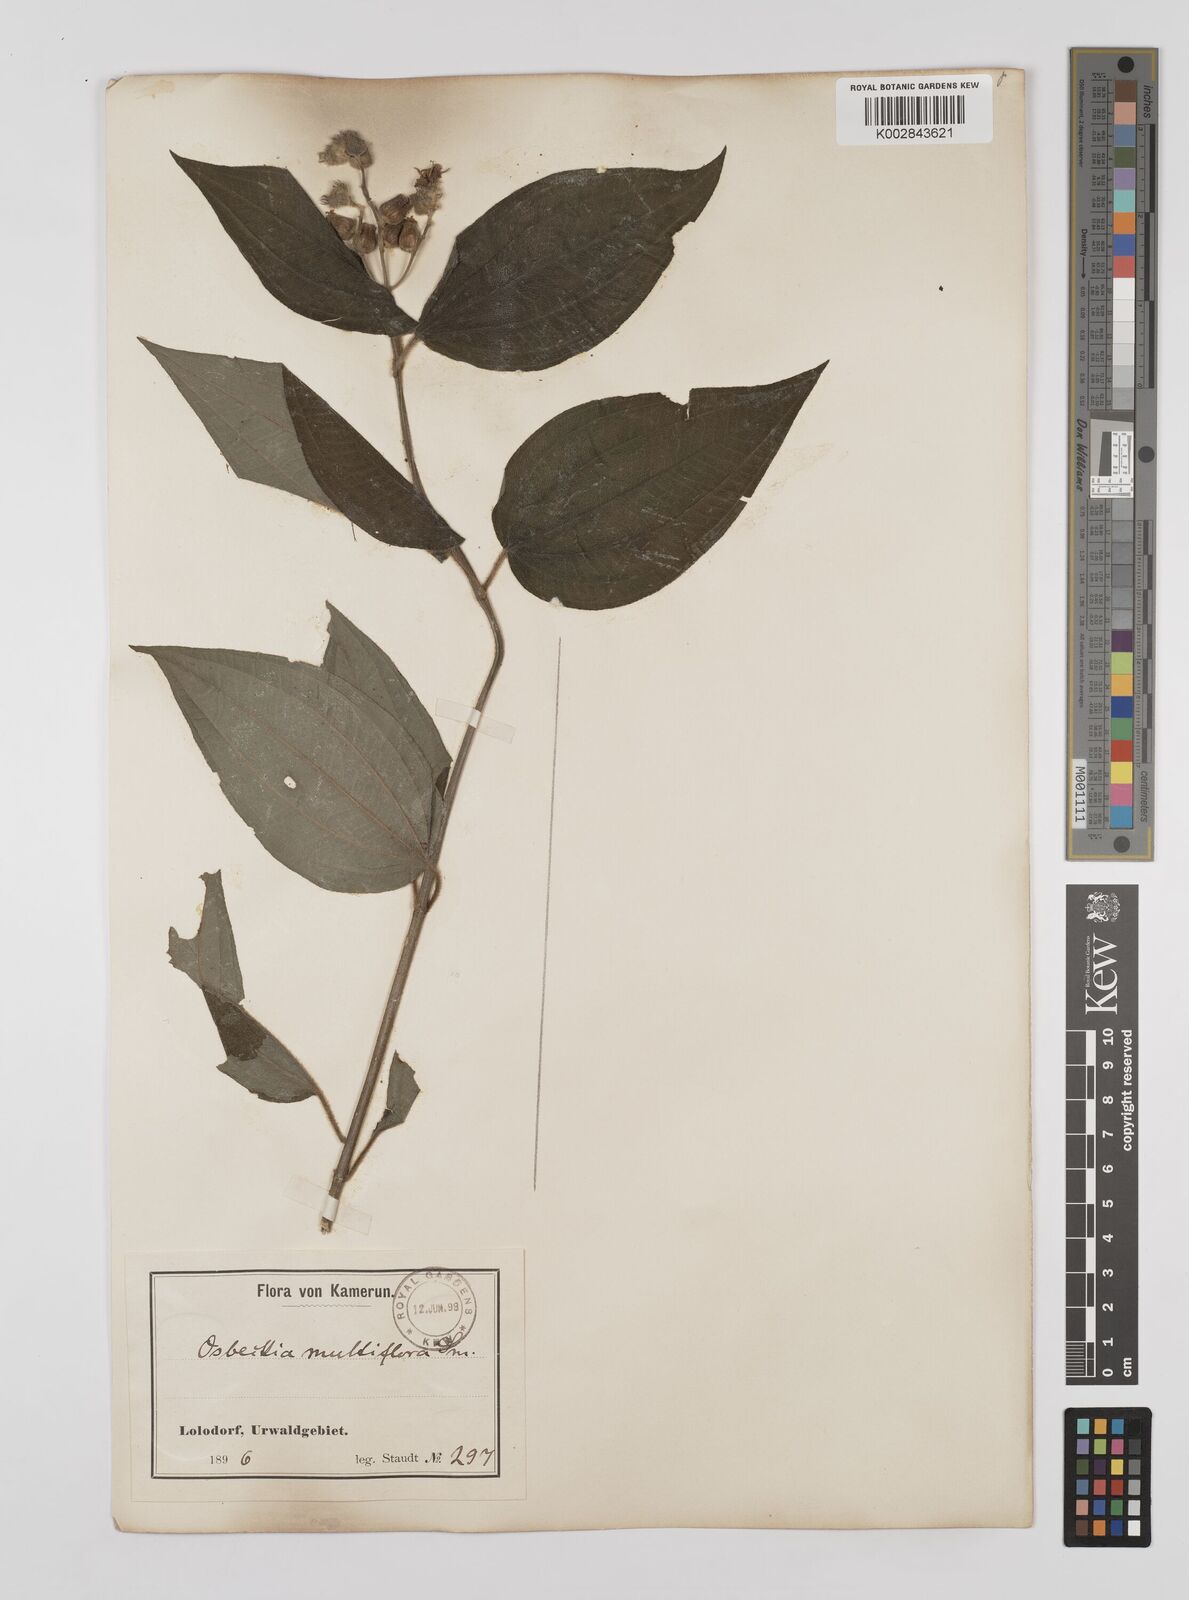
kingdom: Plantae
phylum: Tracheophyta
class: Magnoliopsida
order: Myrtales
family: Melastomataceae
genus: Dupineta
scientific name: Dupineta multiflora
